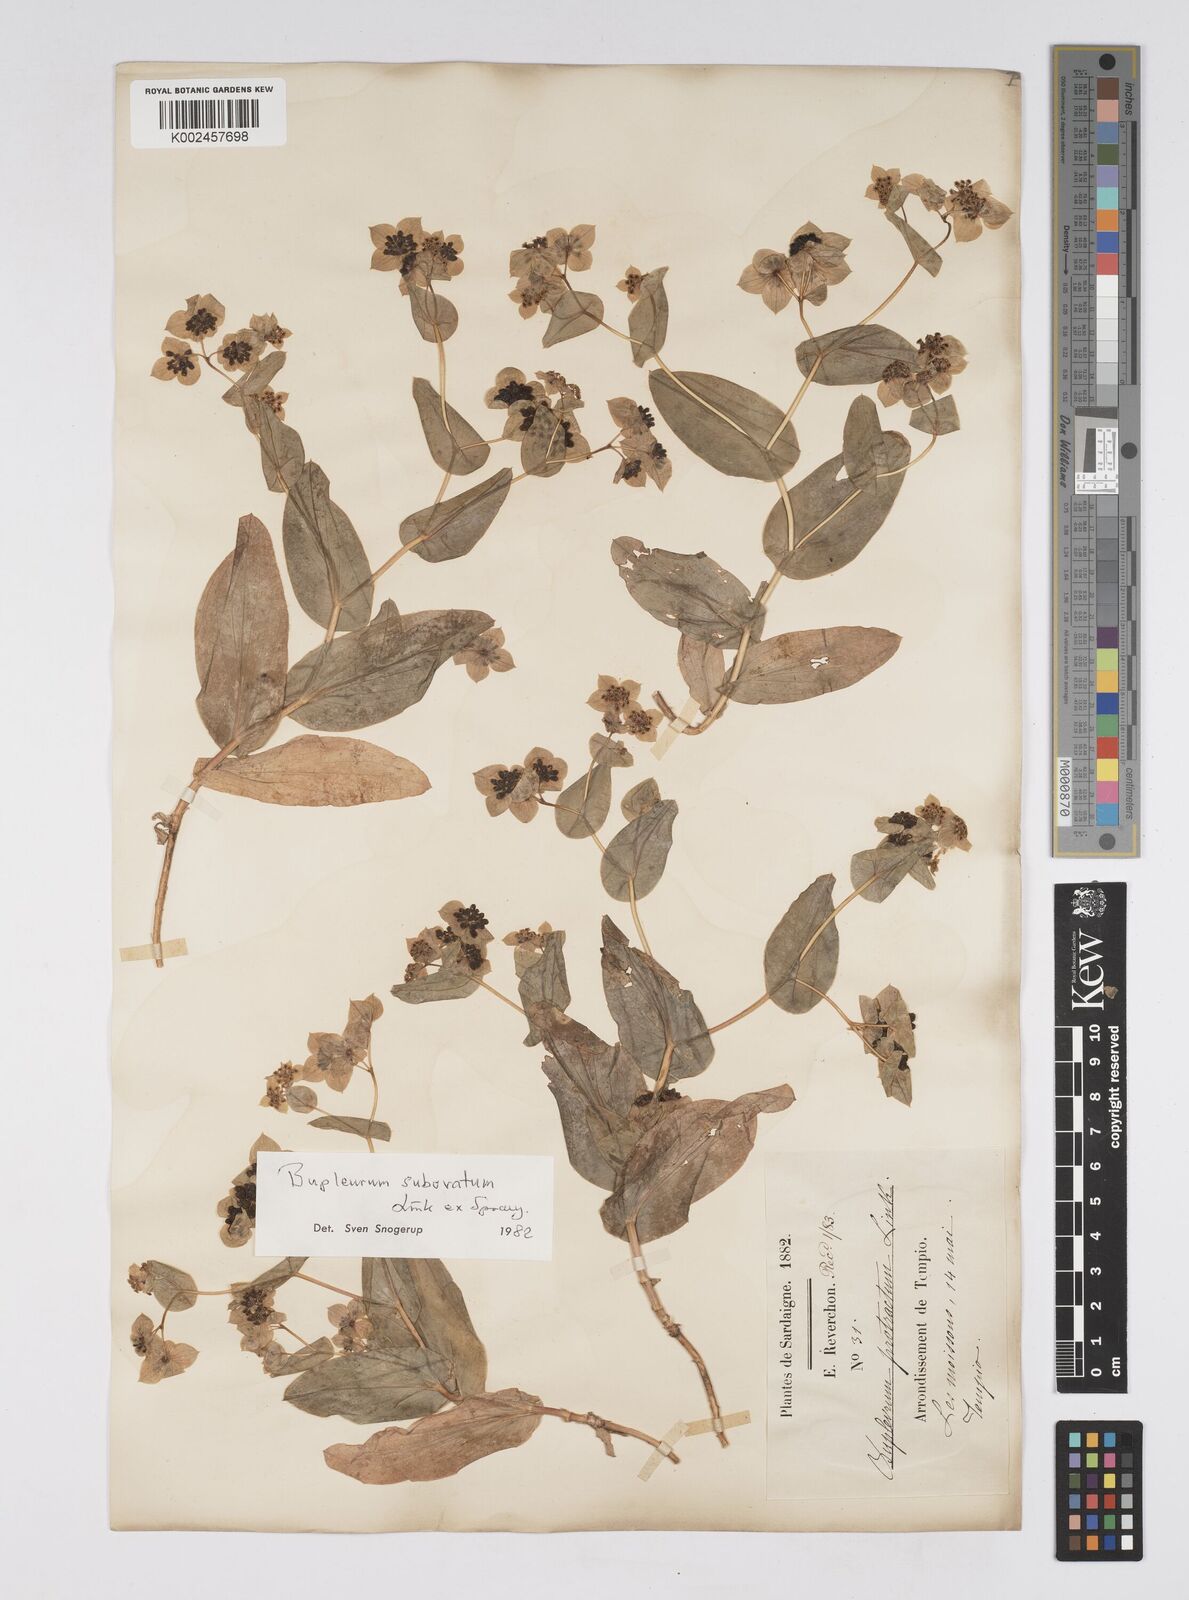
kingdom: Plantae
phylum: Tracheophyta
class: Magnoliopsida
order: Apiales
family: Apiaceae
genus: Bupleurum
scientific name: Bupleurum lancifolium
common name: False thorow-wax
